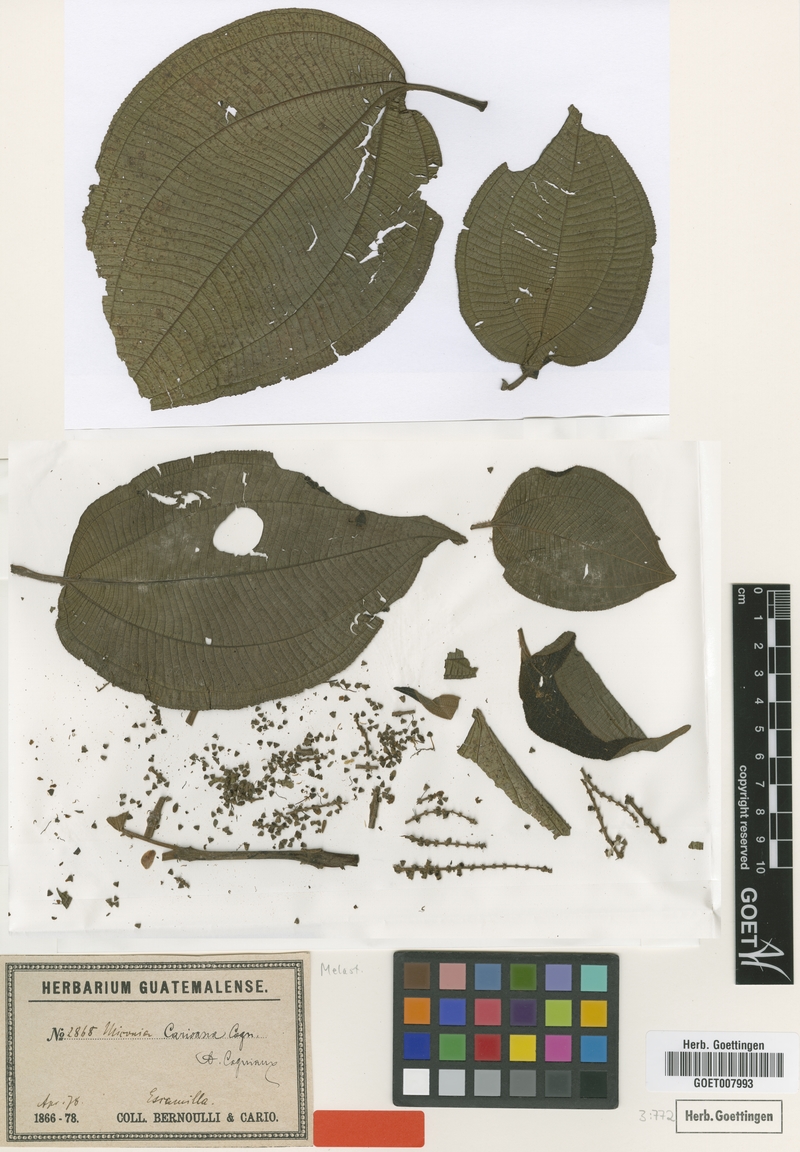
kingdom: Plantae
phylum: Tracheophyta
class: Magnoliopsida
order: Myrtales
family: Melastomataceae
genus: Miconia
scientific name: Miconia desmantha
